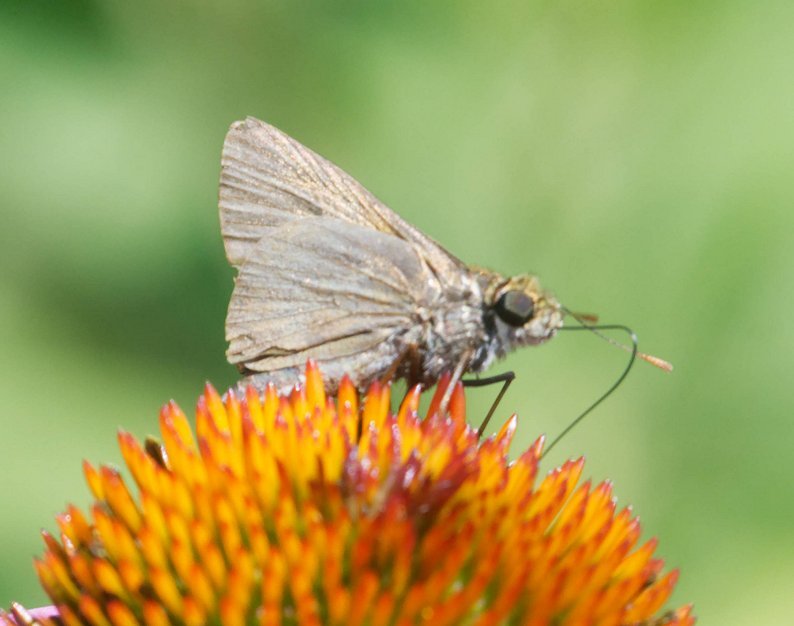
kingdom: Animalia
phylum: Arthropoda
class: Insecta
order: Lepidoptera
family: Hesperiidae
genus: Euphyes
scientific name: Euphyes vestris
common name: Dun Skipper
